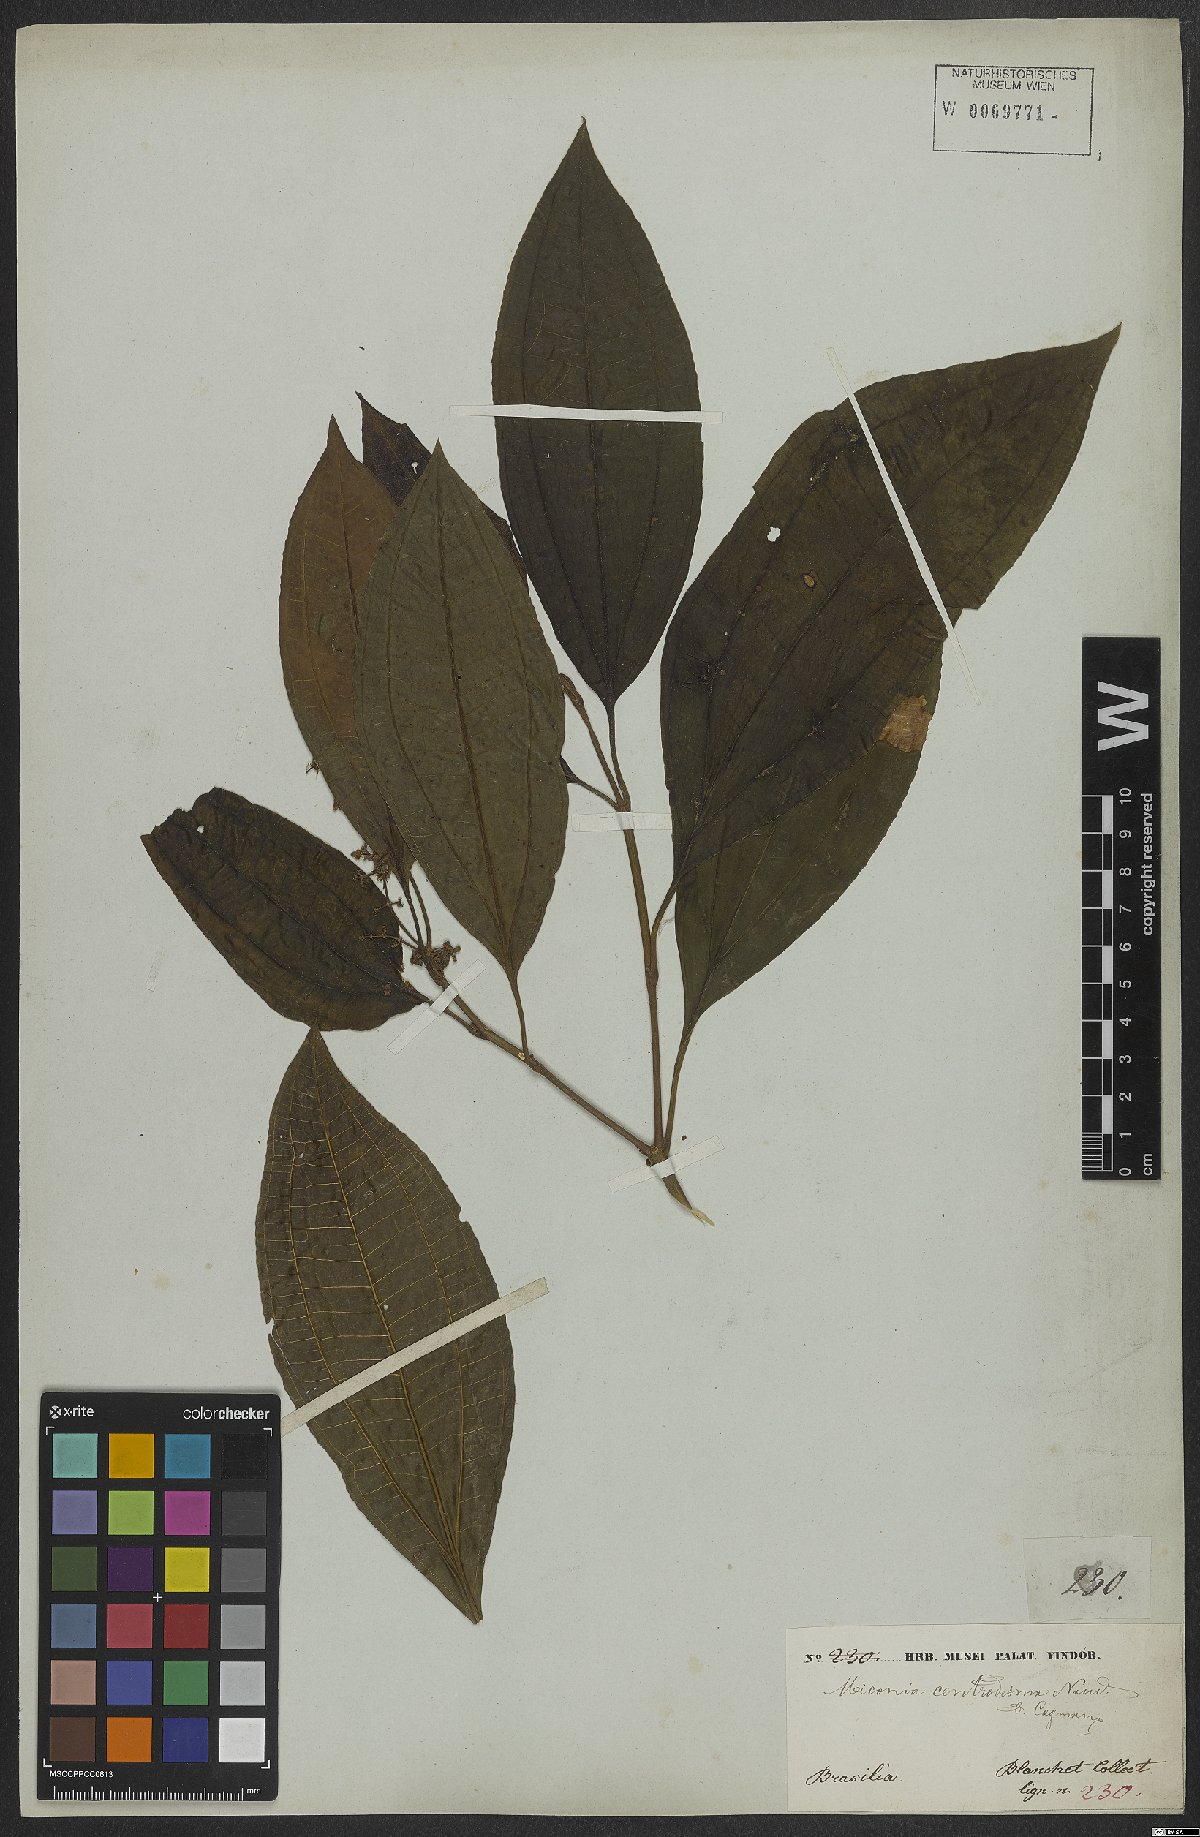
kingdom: Plantae
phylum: Tracheophyta
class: Magnoliopsida
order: Myrtales
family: Melastomataceae
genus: Miconia
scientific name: Miconia centrodesma
